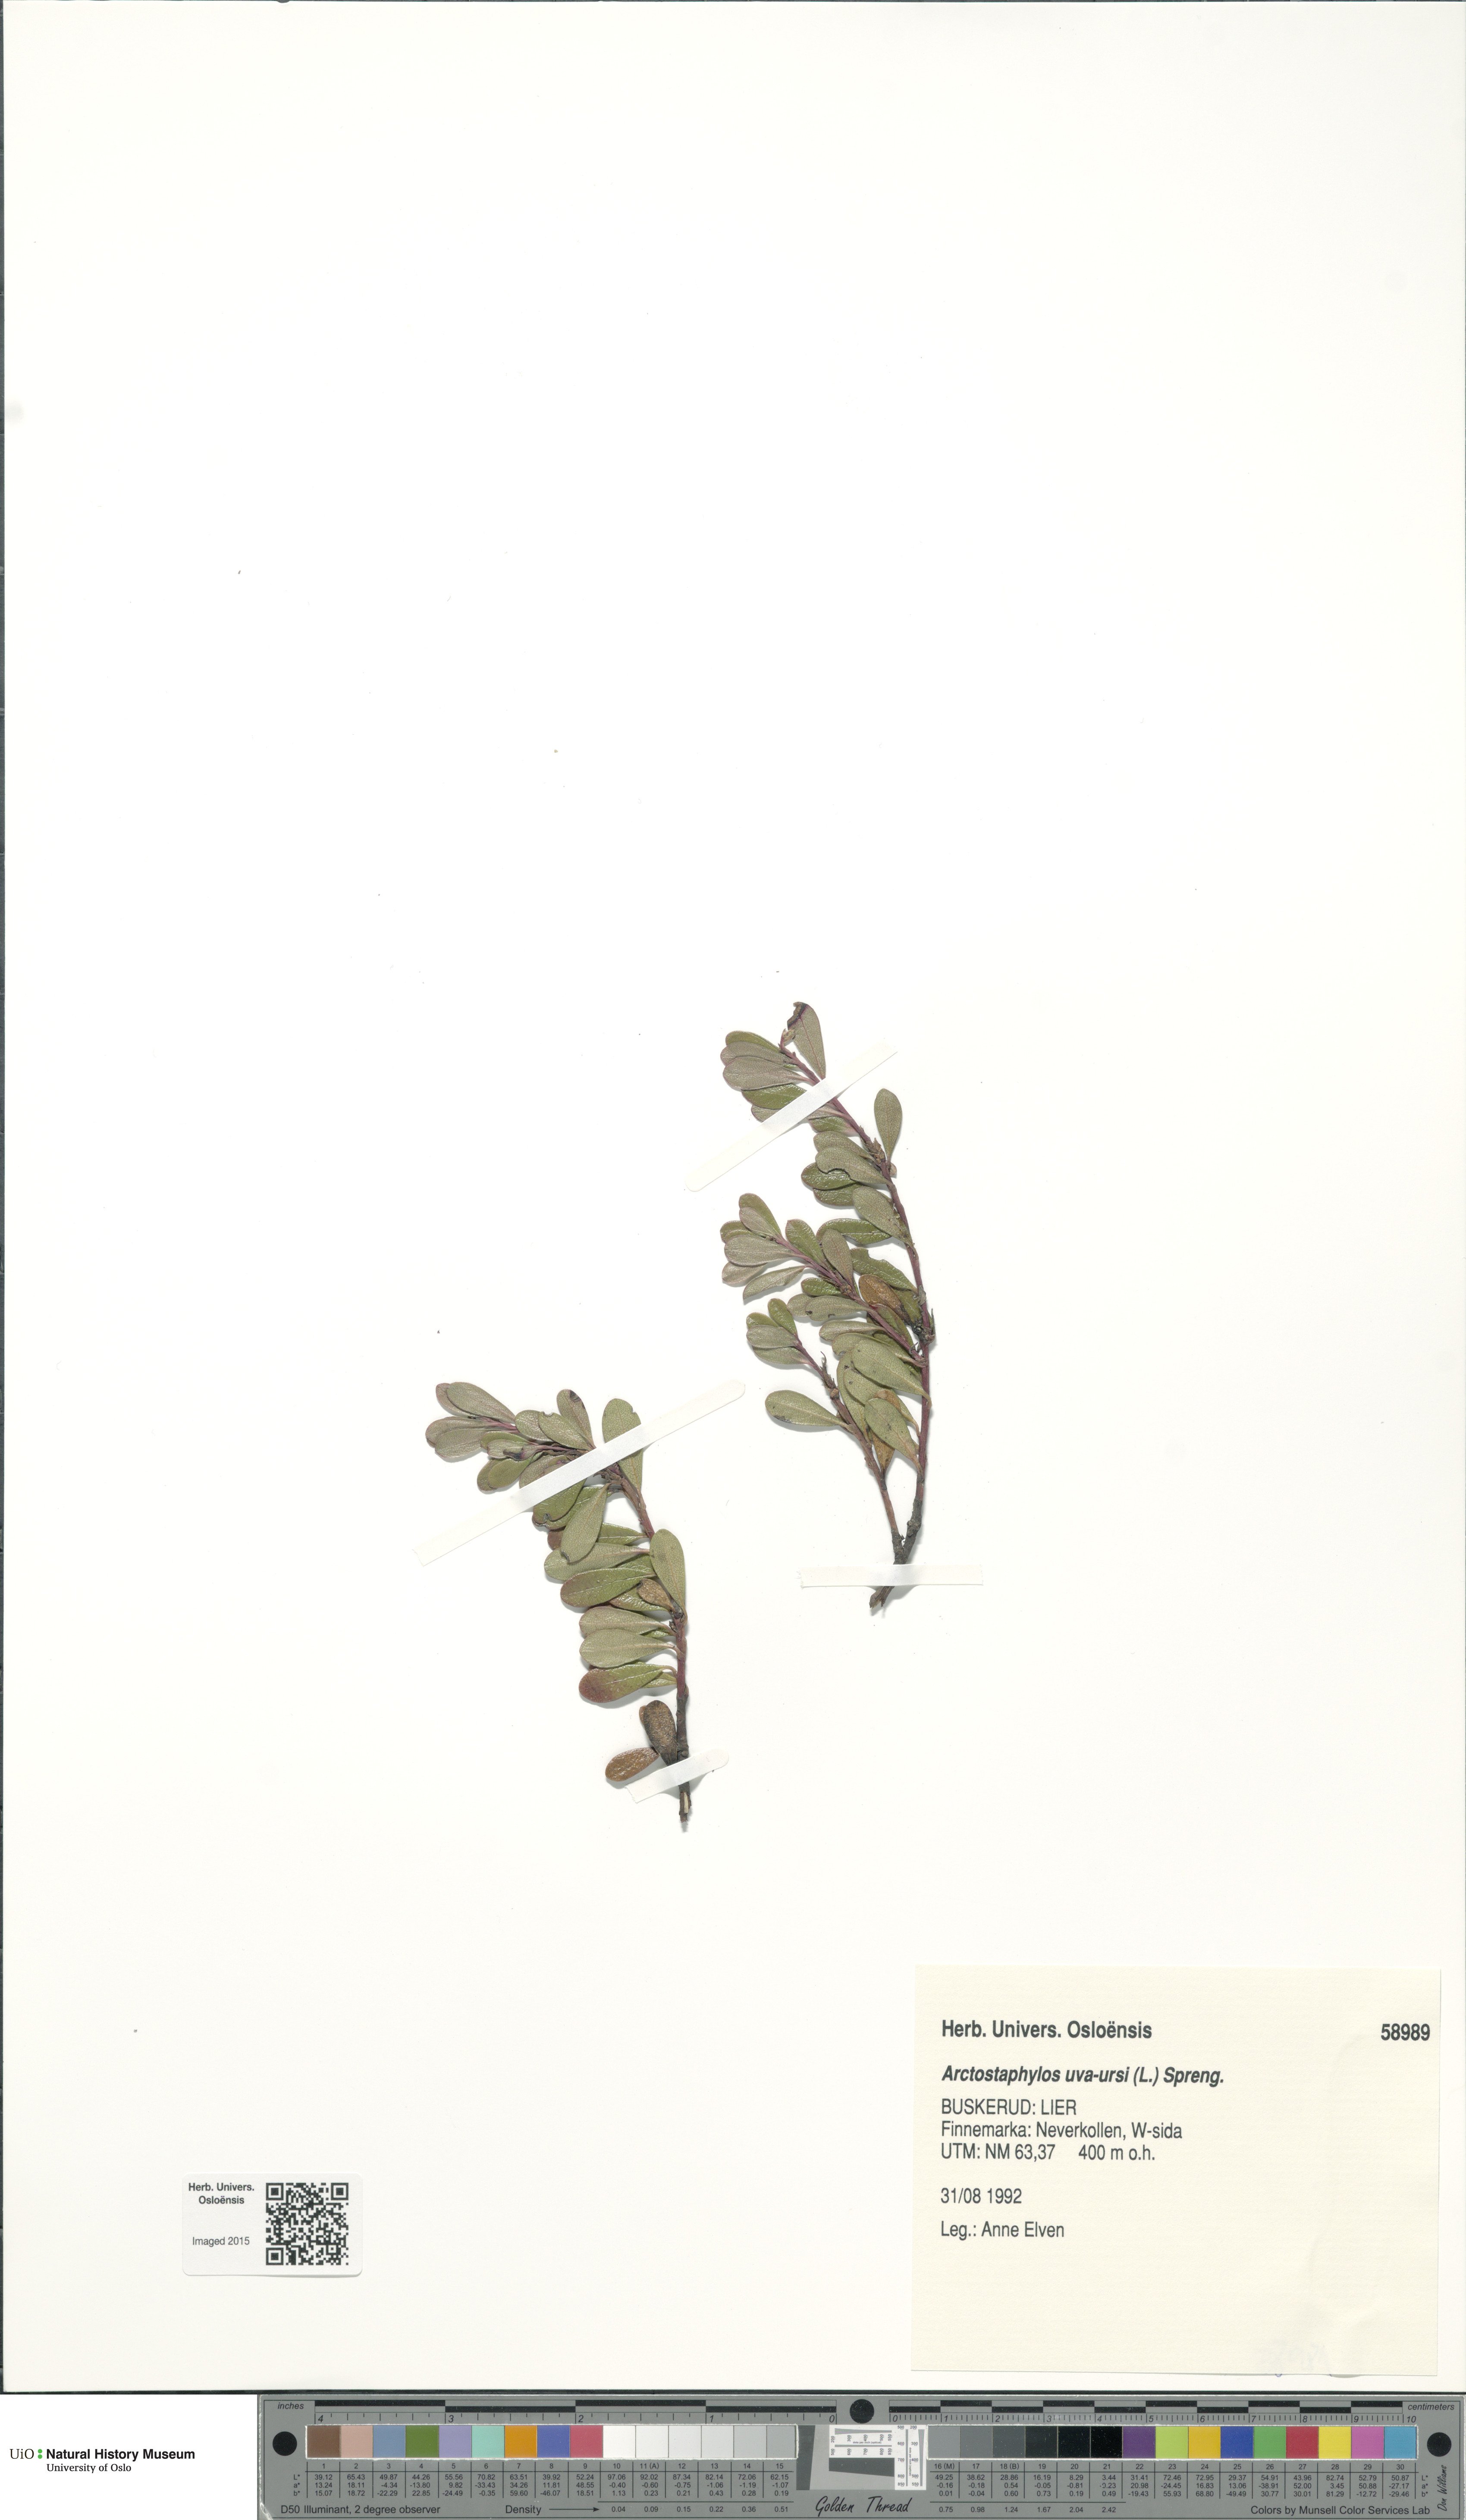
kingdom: Plantae
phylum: Tracheophyta
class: Magnoliopsida
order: Ericales
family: Ericaceae
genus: Arctostaphylos
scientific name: Arctostaphylos uva-ursi
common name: Bearberry
